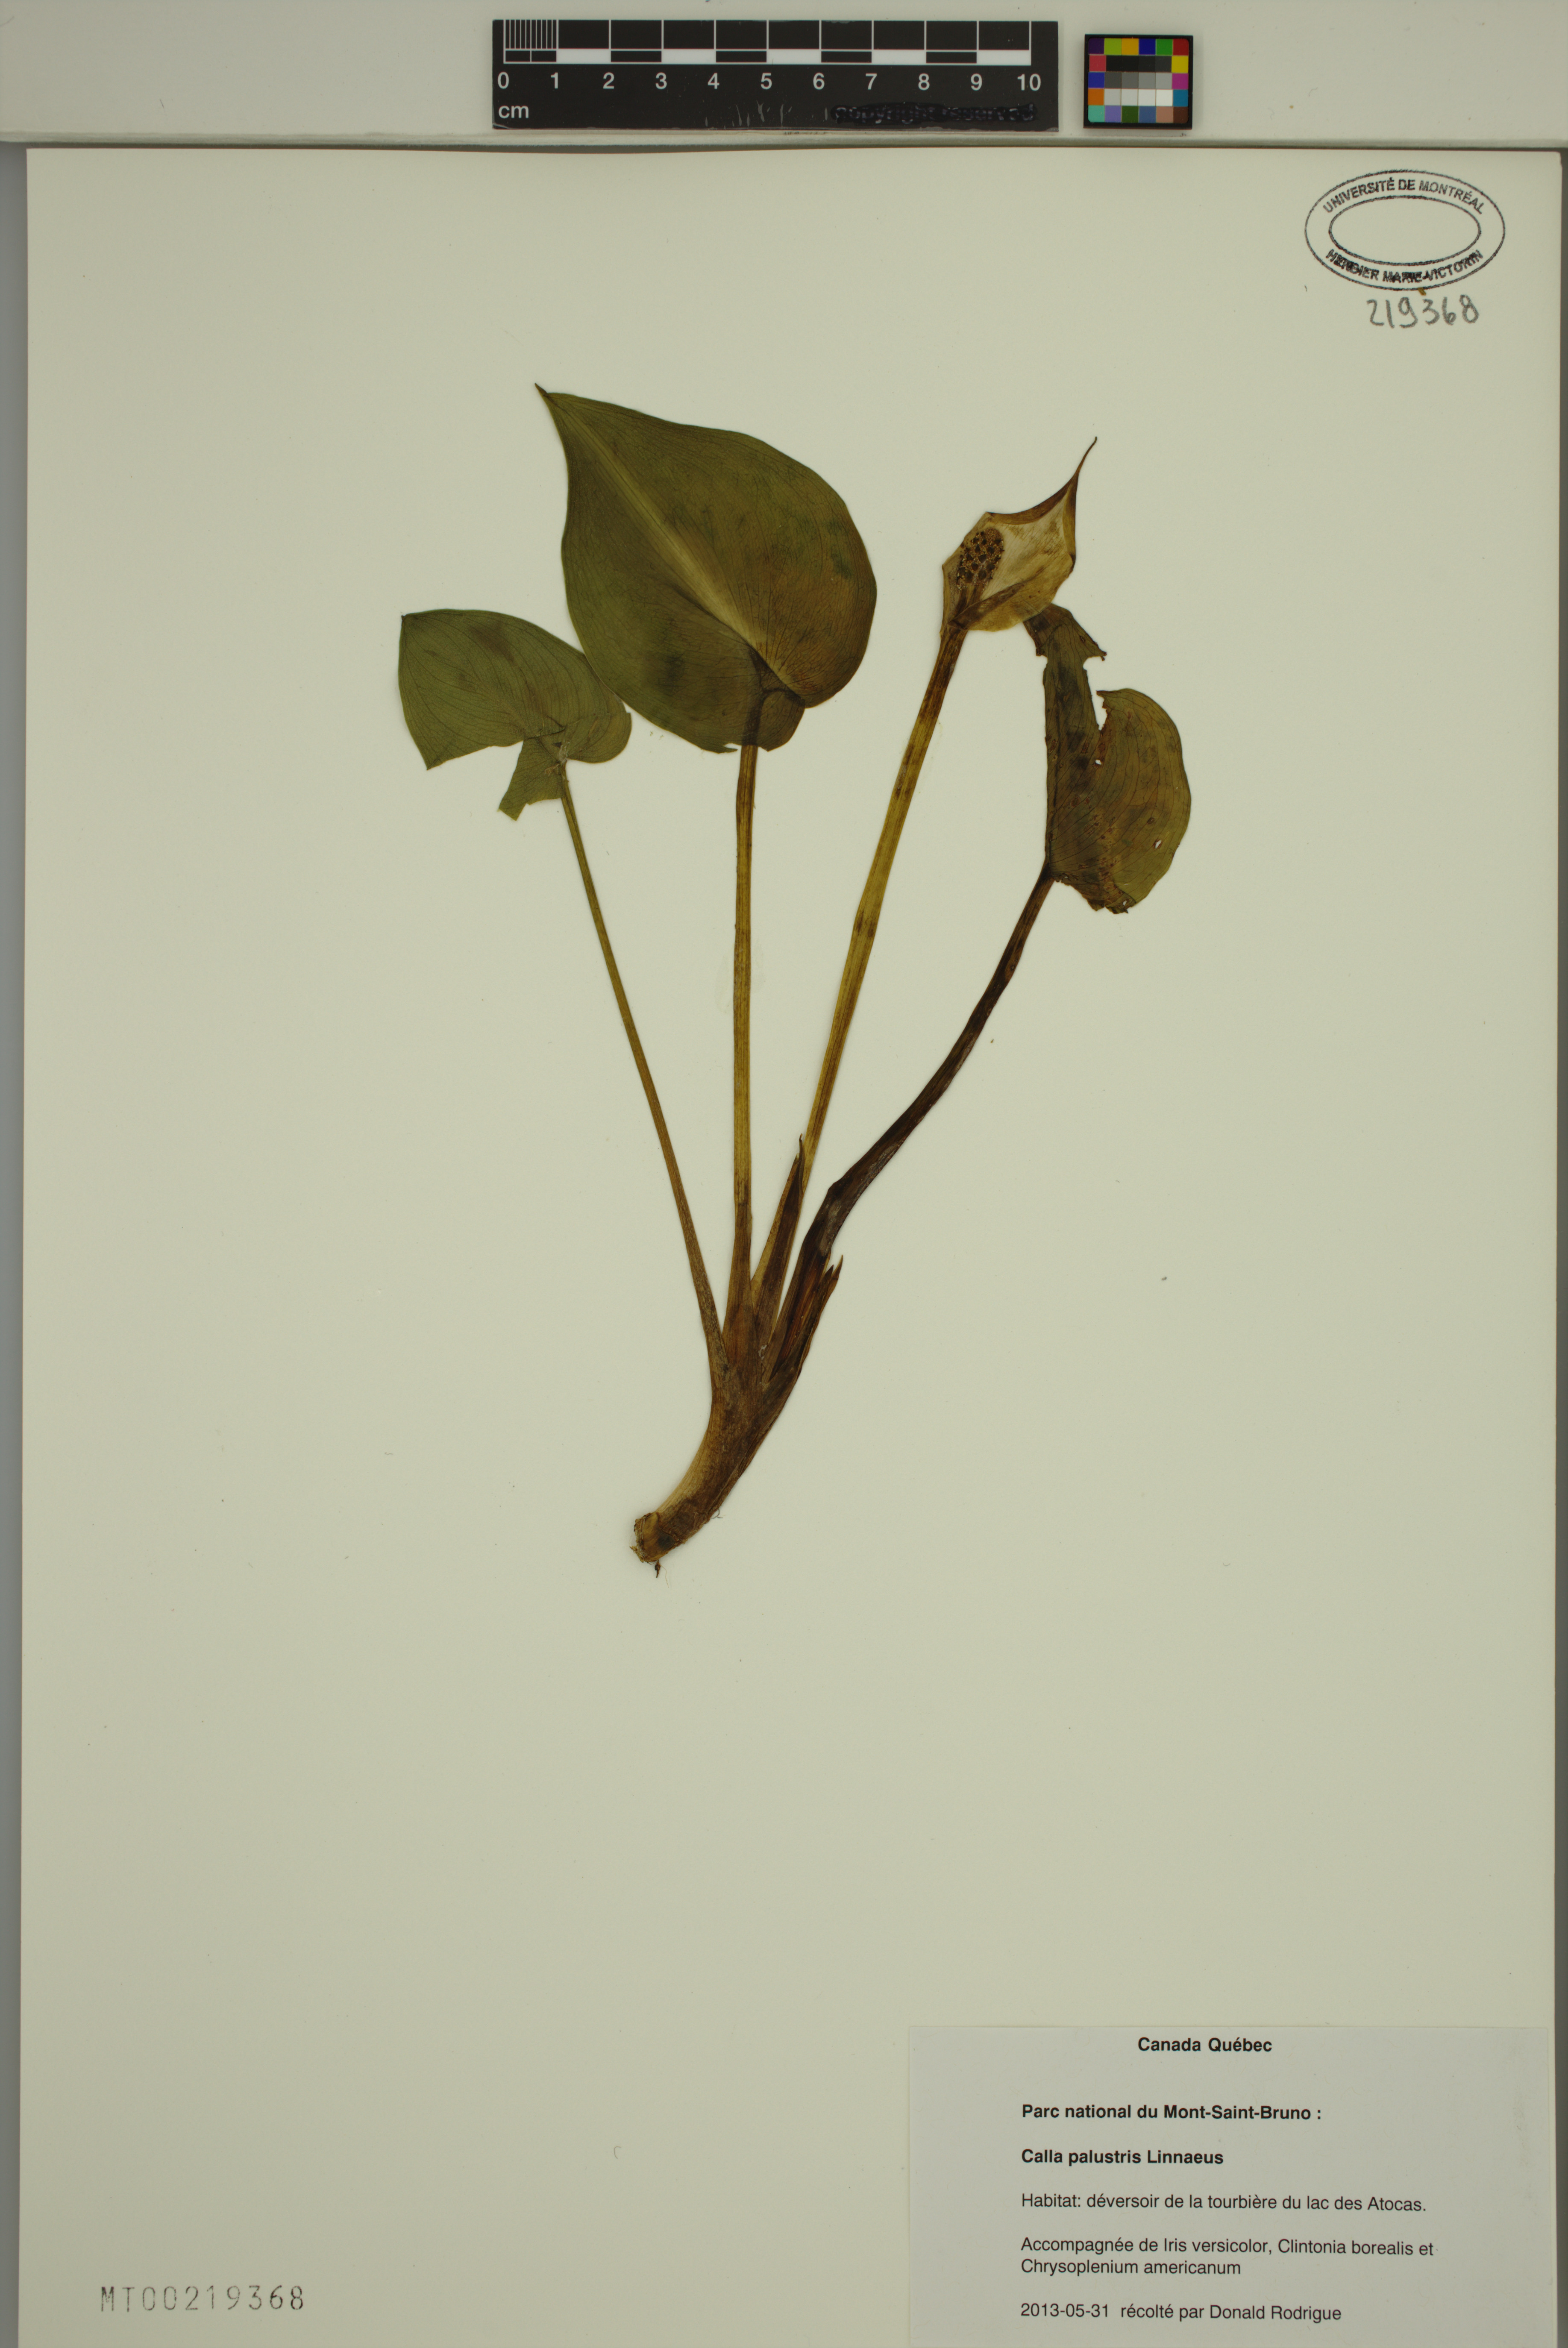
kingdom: Plantae
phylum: Tracheophyta
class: Liliopsida
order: Alismatales
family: Araceae
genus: Calla
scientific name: Calla palustris
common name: Bog arum
